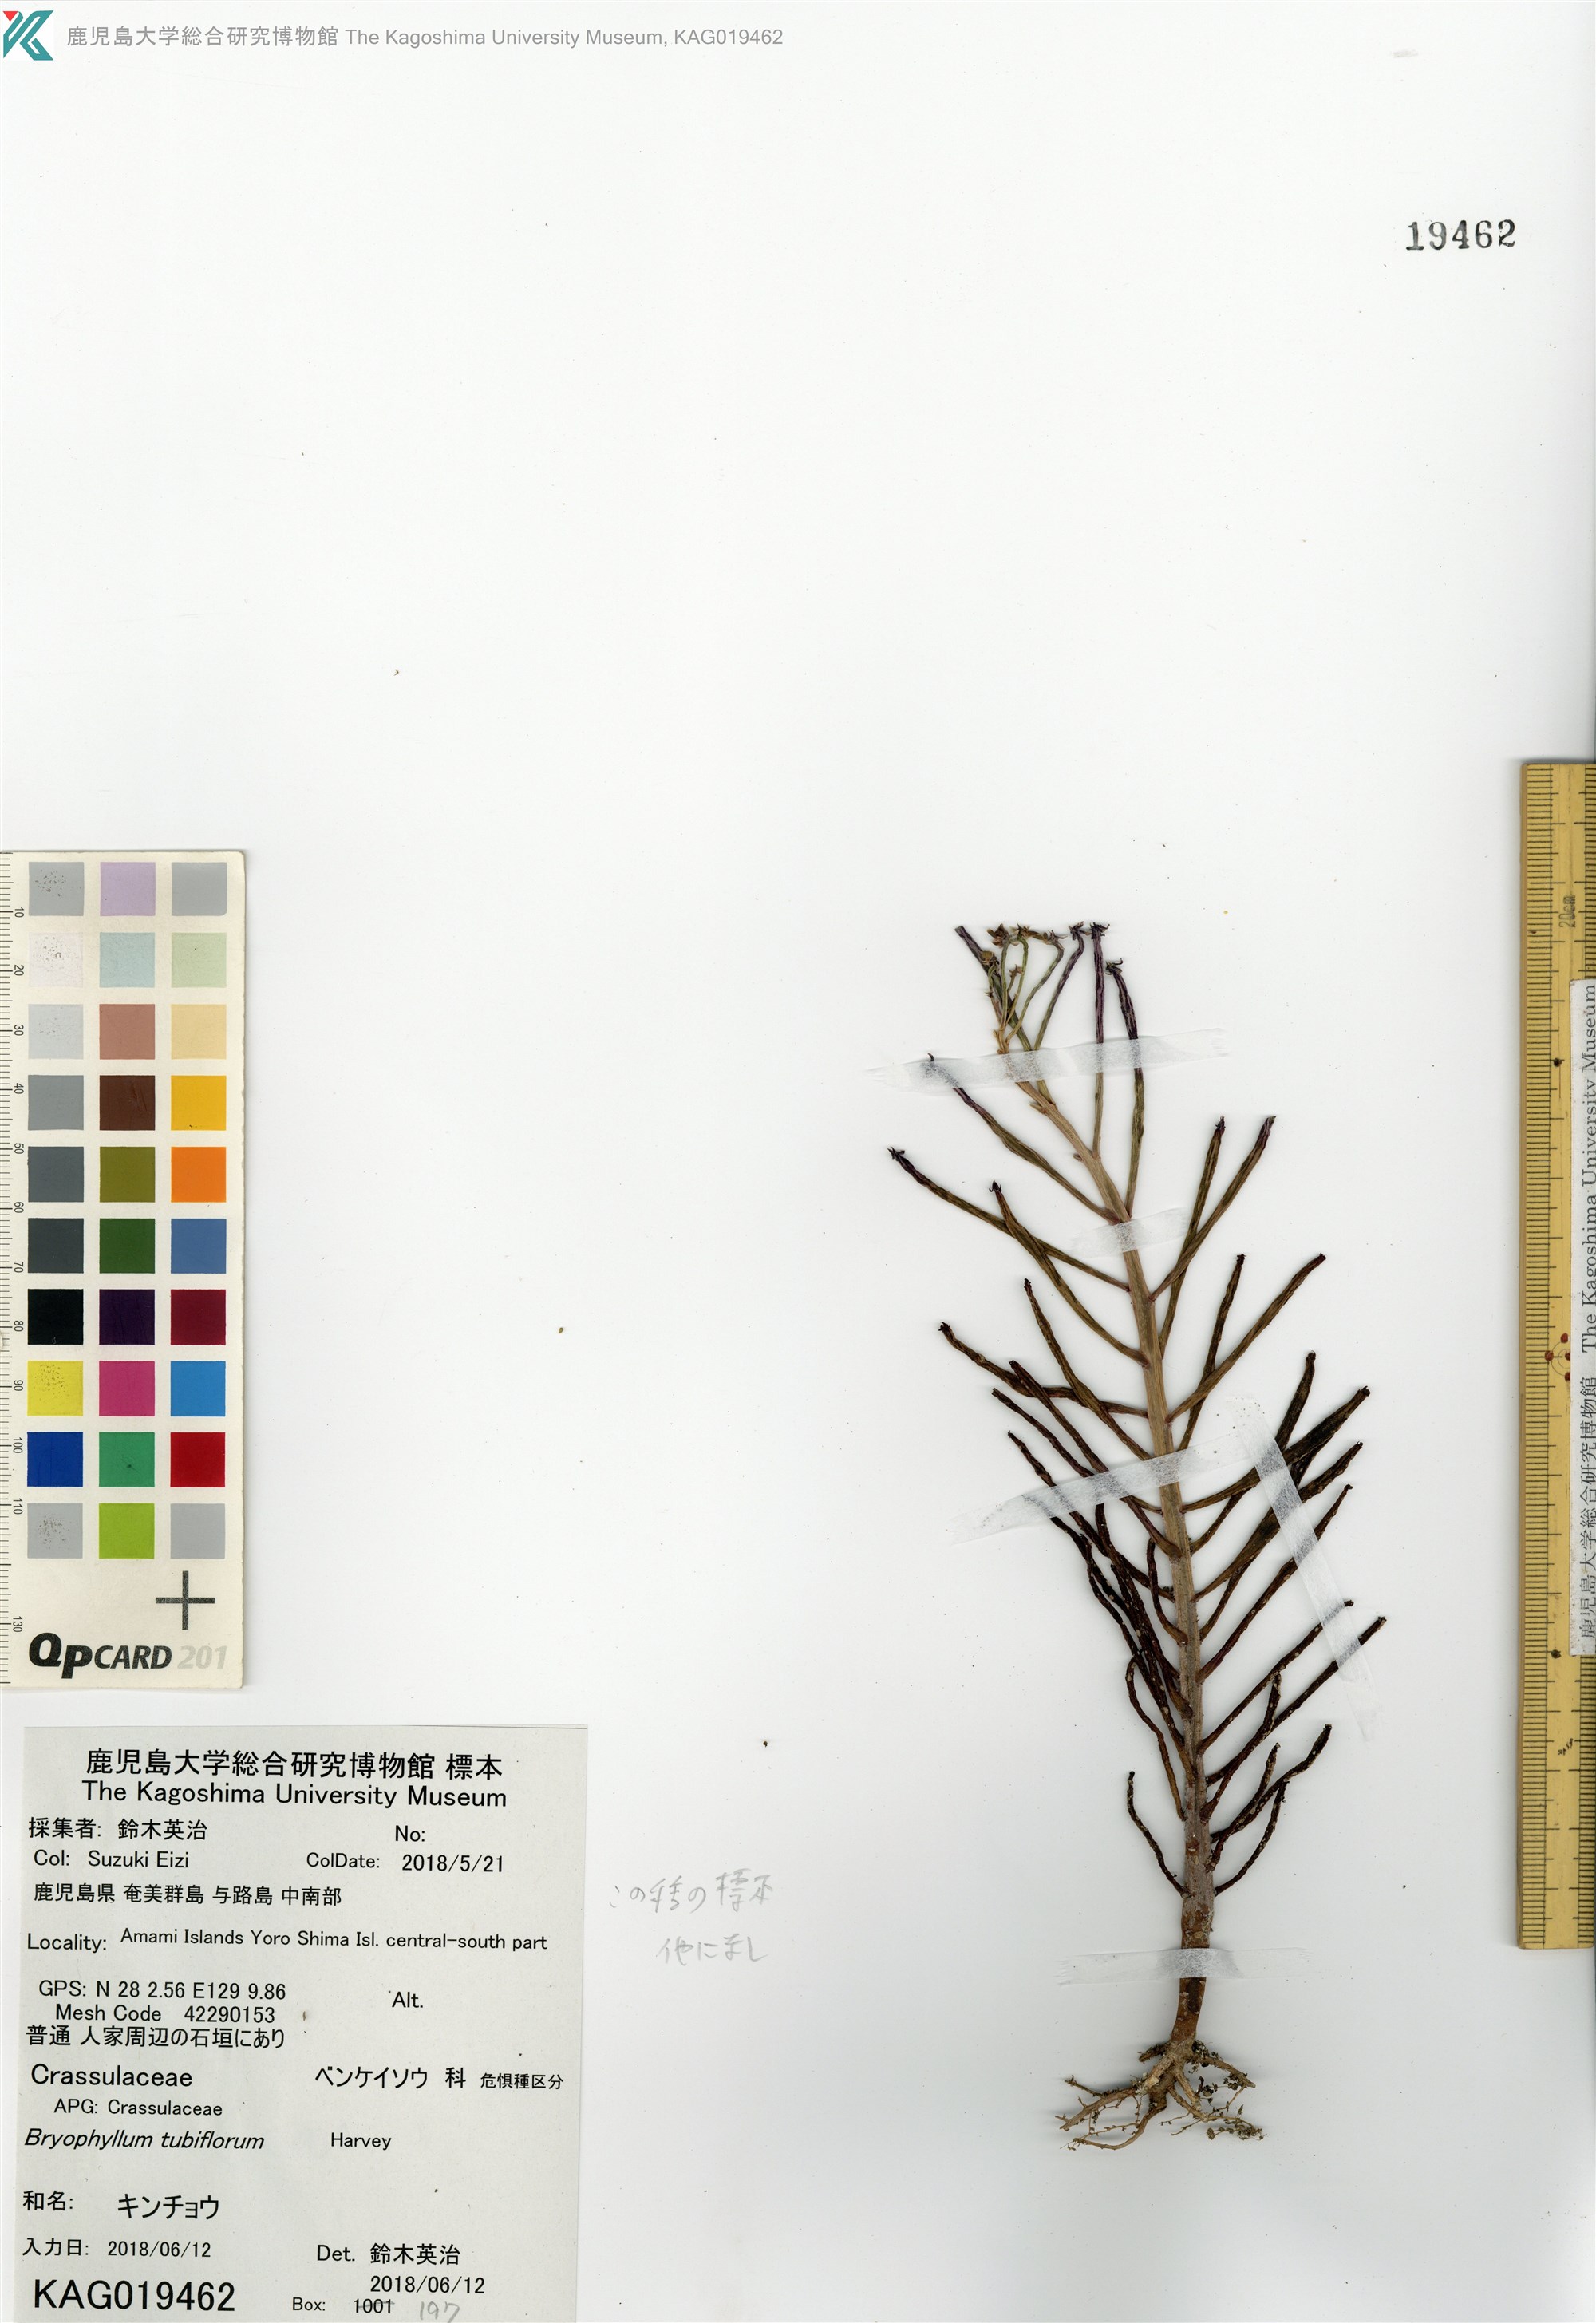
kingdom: Plantae
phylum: Tracheophyta
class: Magnoliopsida
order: Saxifragales
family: Crassulaceae
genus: Kalanchoe
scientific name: Kalanchoe delagoensis
